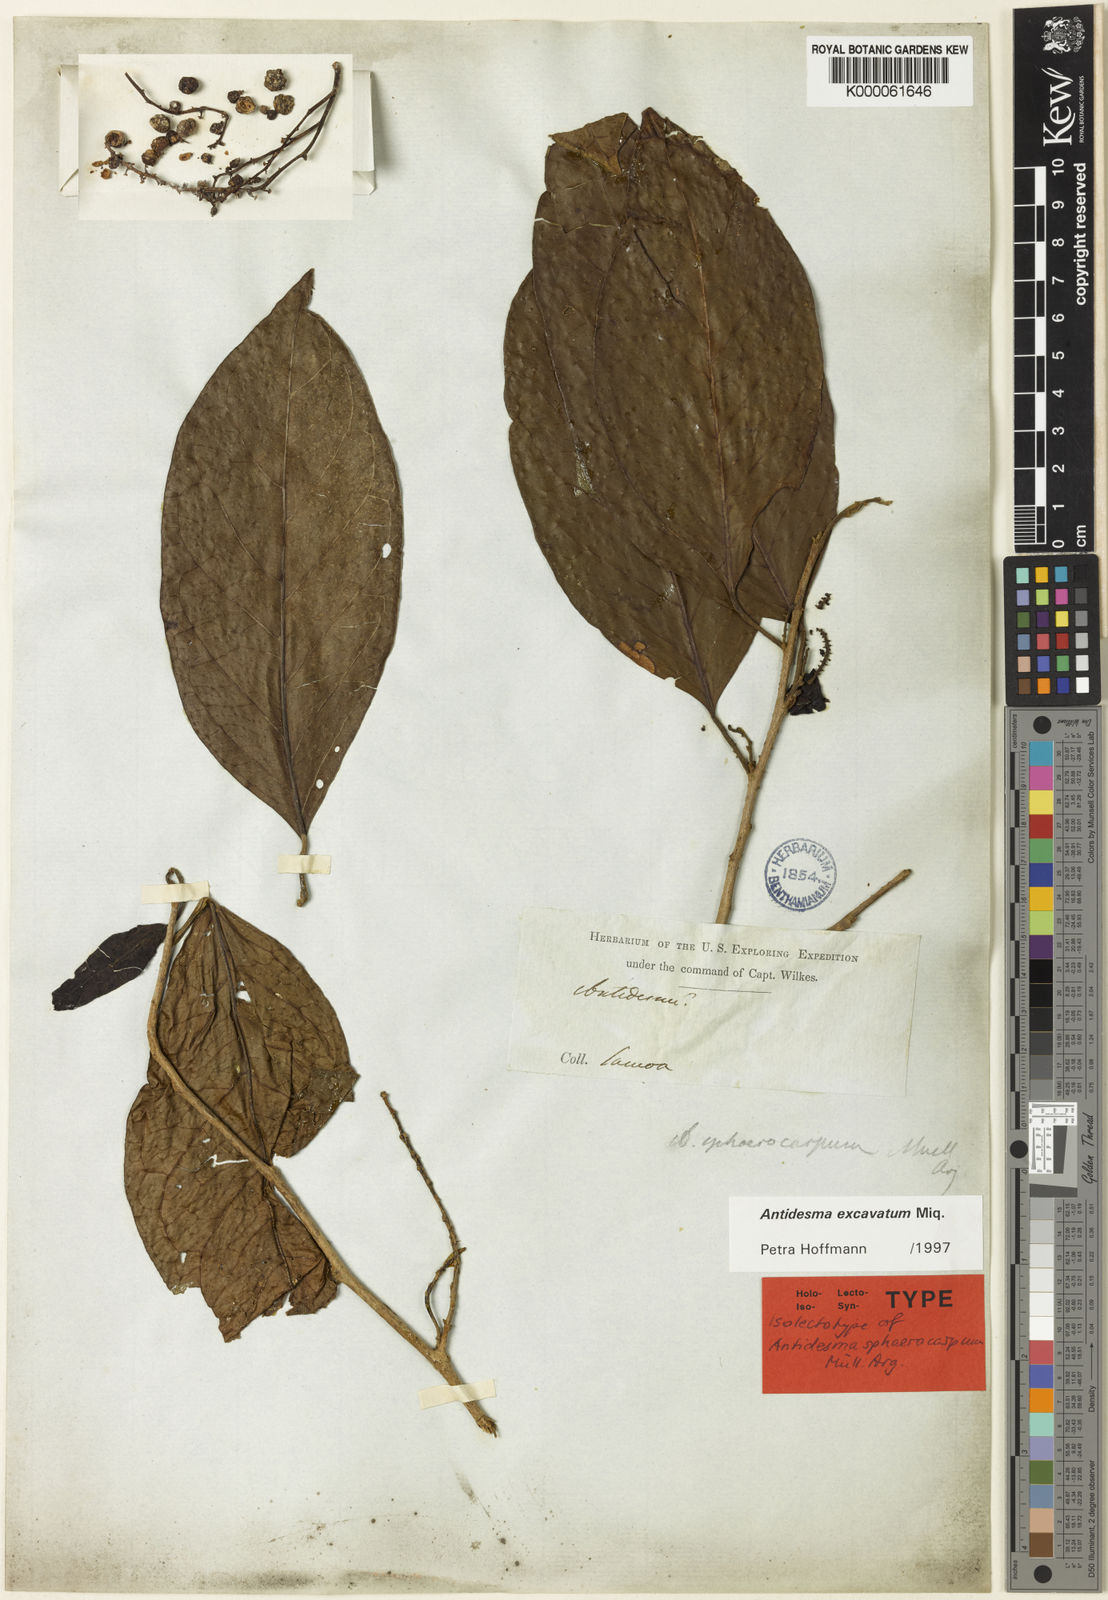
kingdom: Plantae
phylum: Tracheophyta
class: Magnoliopsida
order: Malpighiales
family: Phyllanthaceae
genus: Antidesma
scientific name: Antidesma
